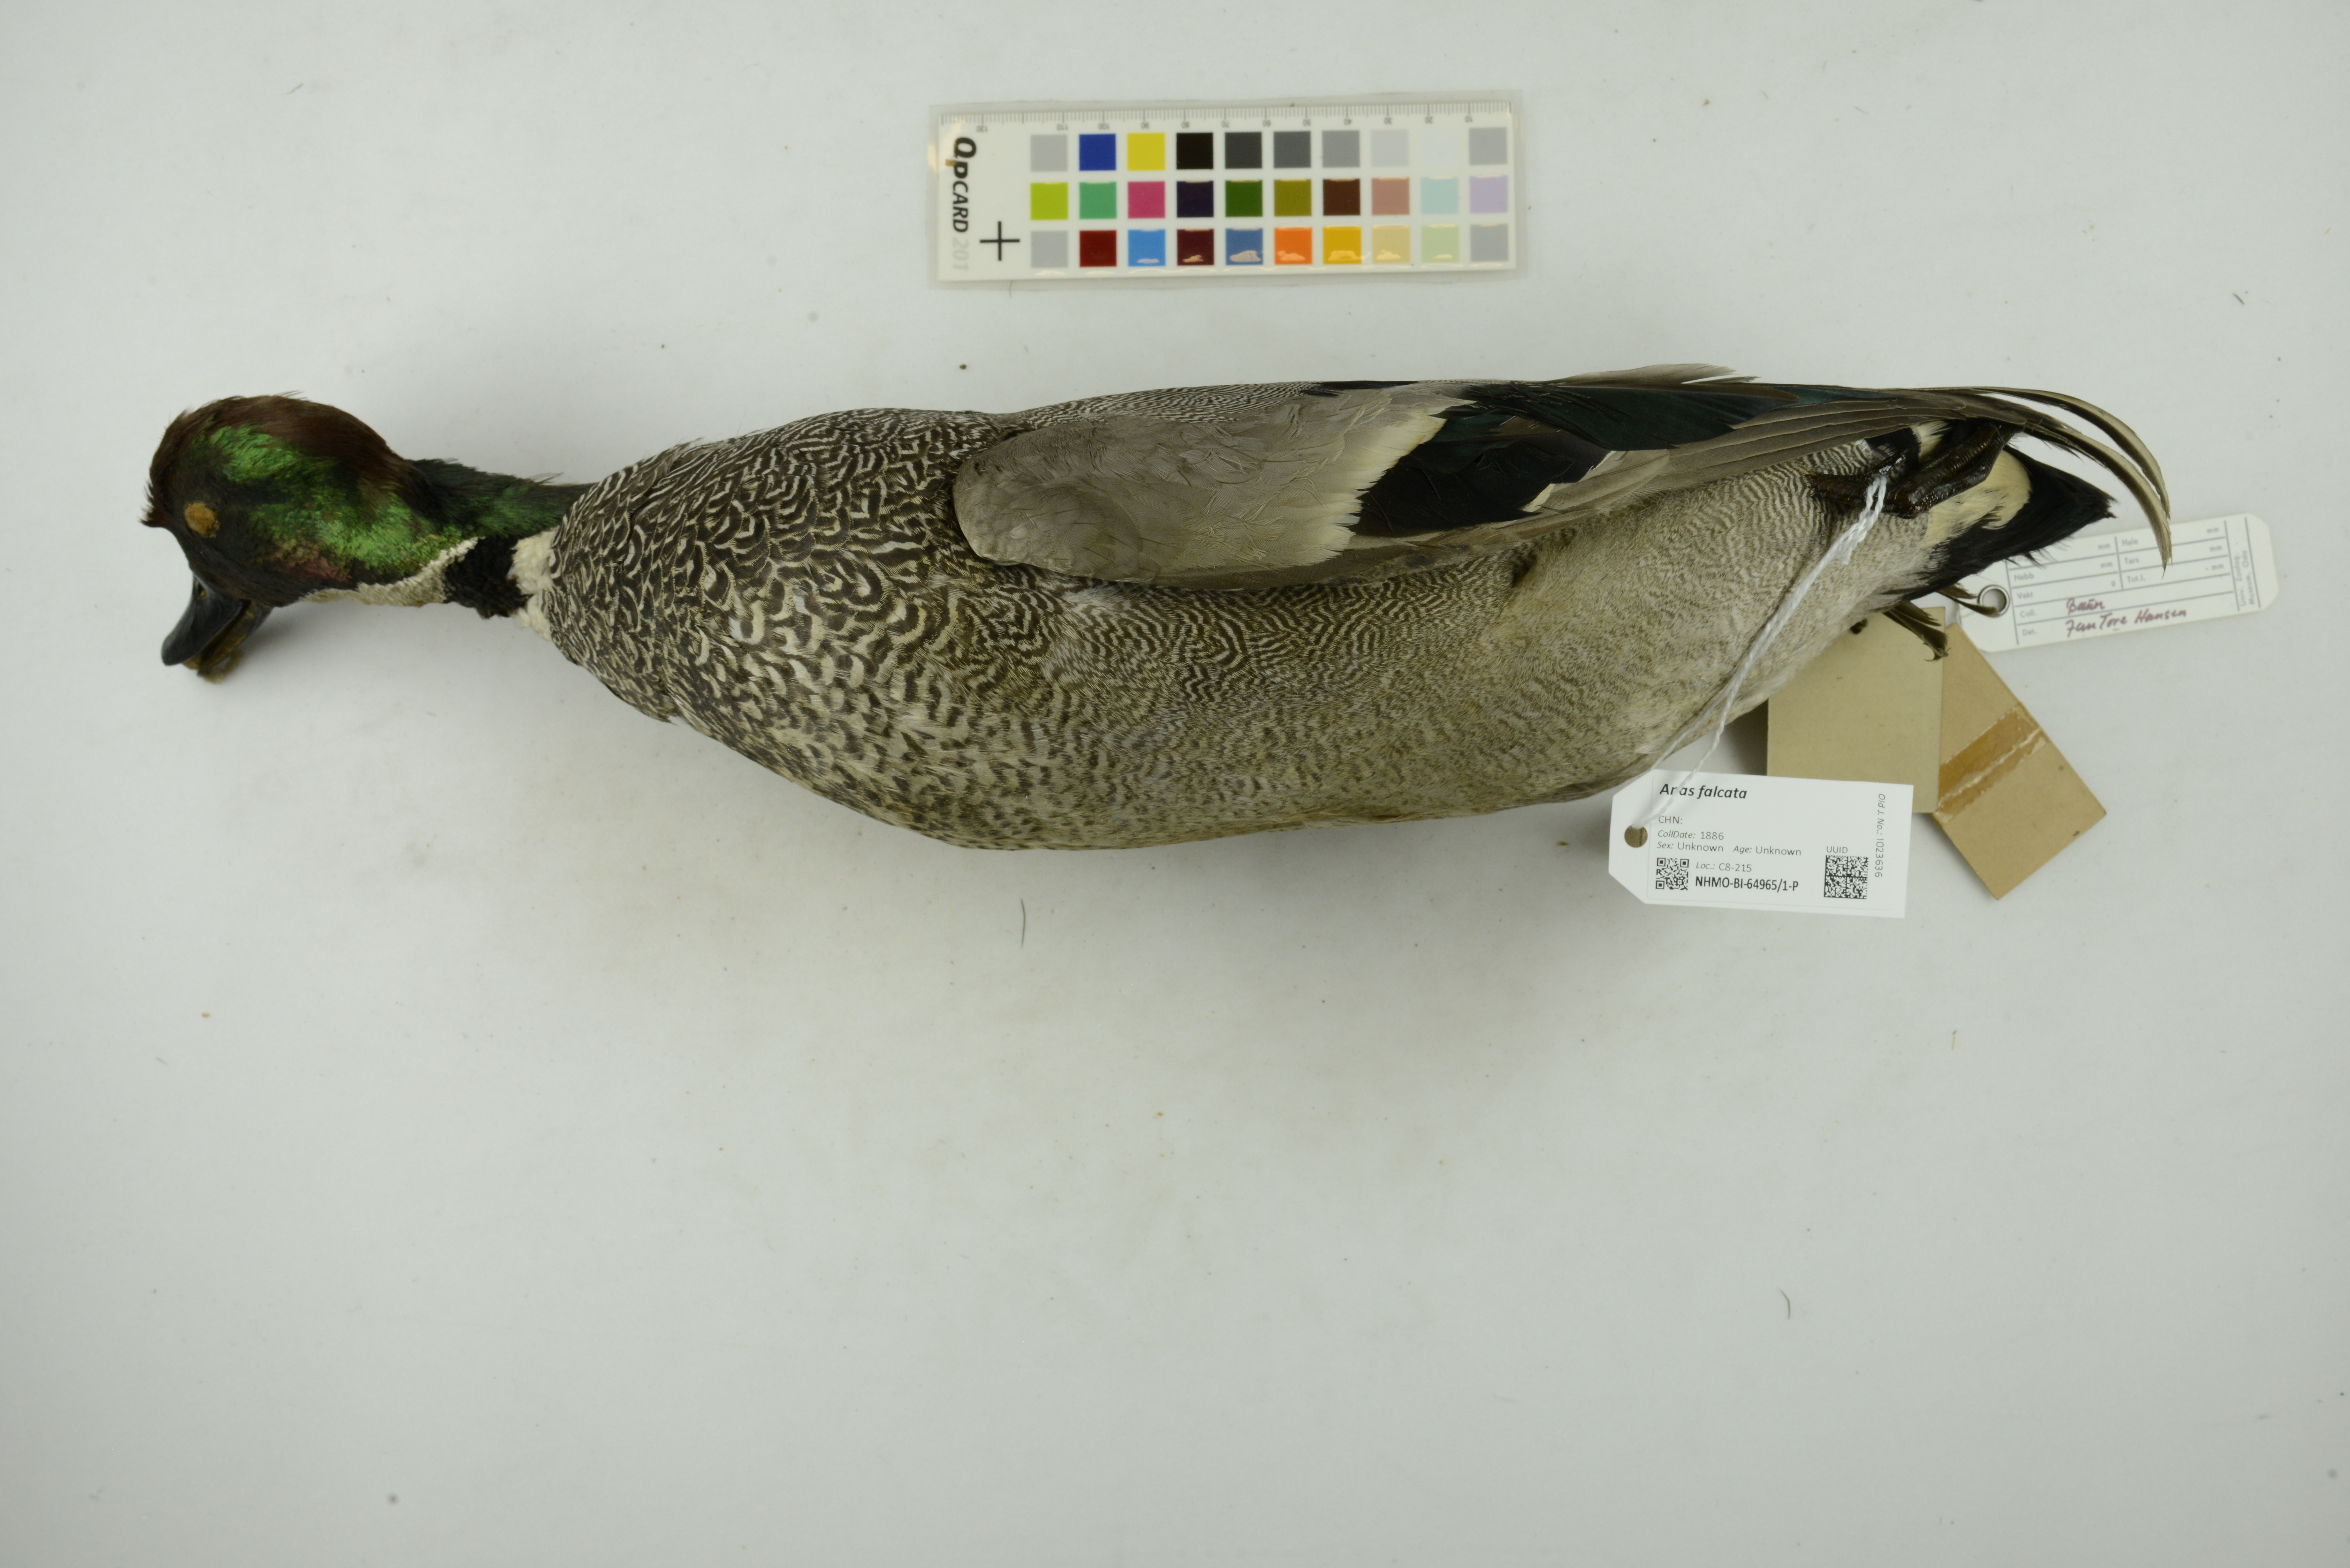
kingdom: Animalia
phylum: Chordata
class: Aves
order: Anseriformes
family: Anatidae
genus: Mareca
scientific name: Mareca falcata
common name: Falcated duck
